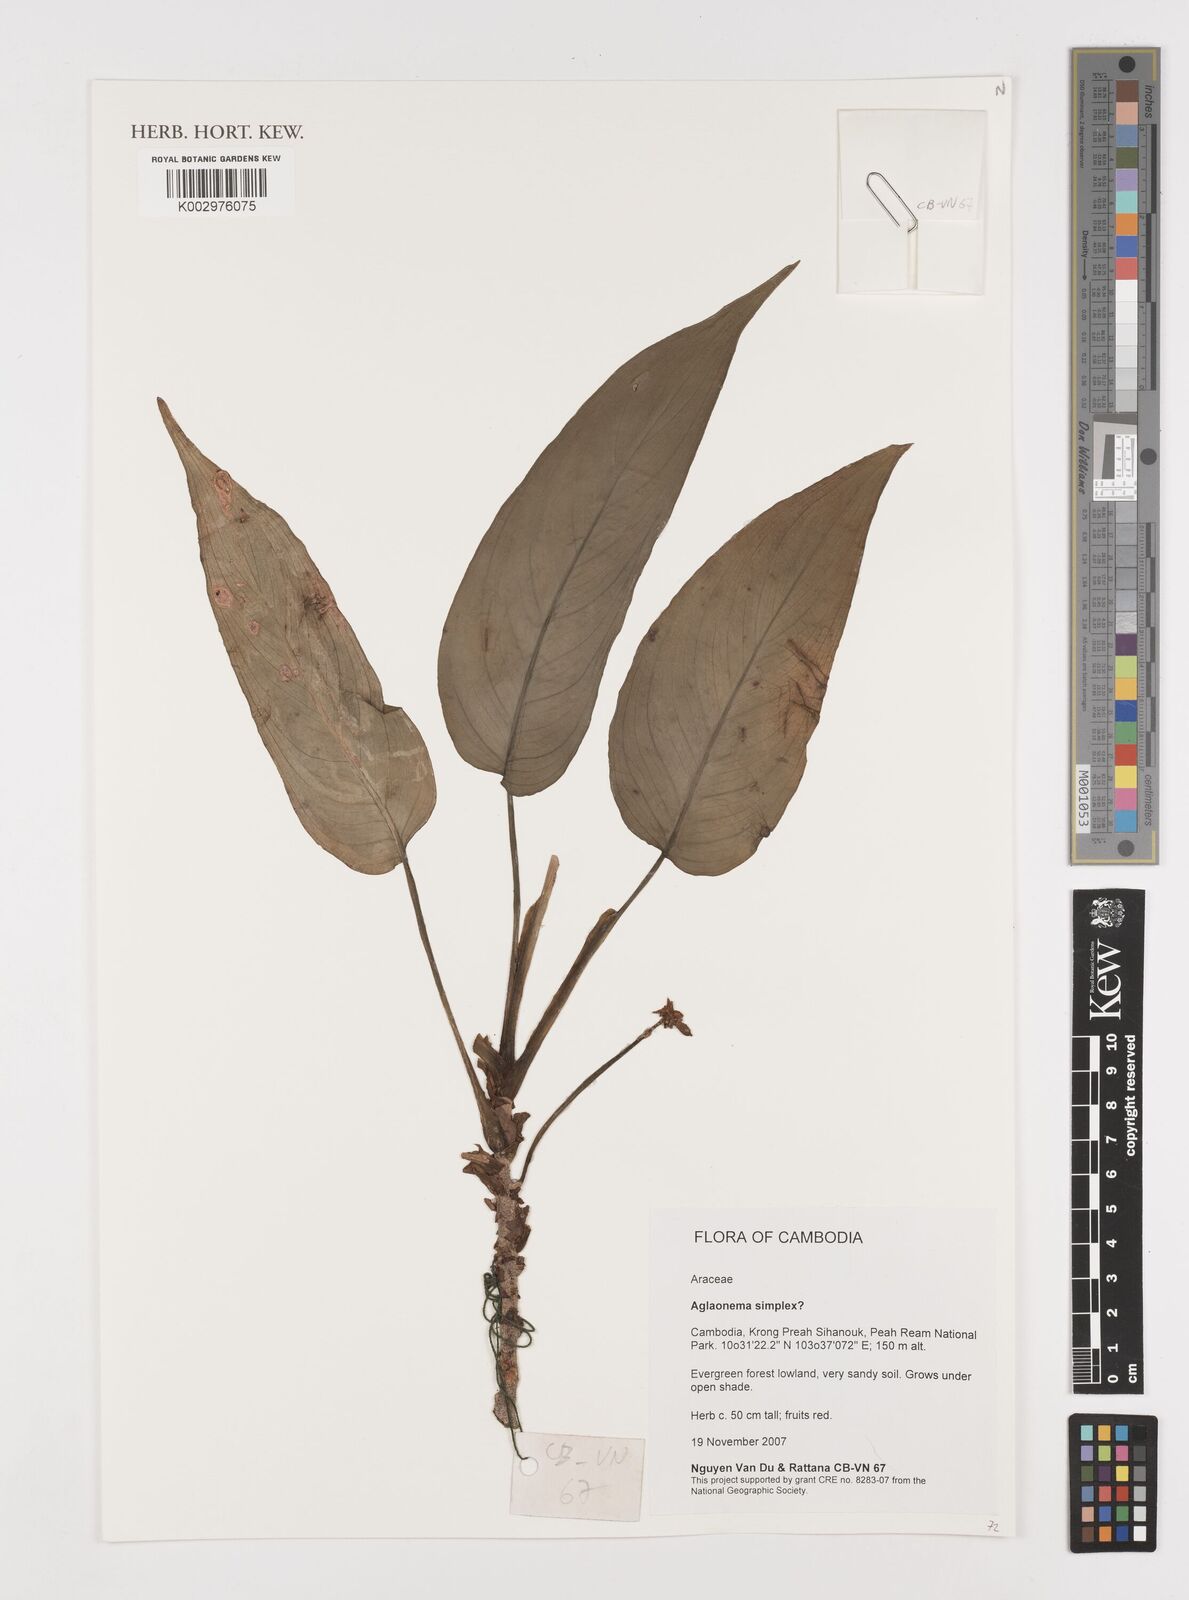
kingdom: Plantae
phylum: Tracheophyta
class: Liliopsida
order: Alismatales
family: Araceae
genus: Aglaonema
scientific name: Aglaonema simplex
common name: Malayan-sword
